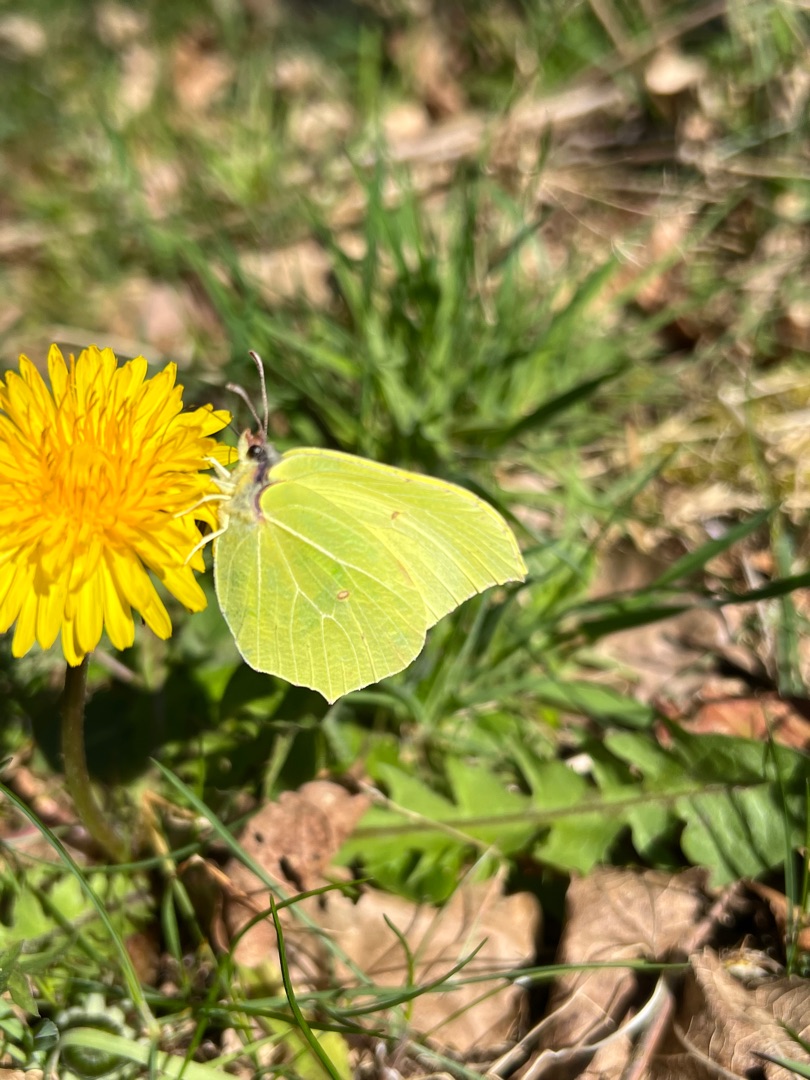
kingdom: Animalia
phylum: Arthropoda
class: Insecta
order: Lepidoptera
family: Pieridae
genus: Gonepteryx
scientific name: Gonepteryx rhamni
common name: Citronsommerfugl
